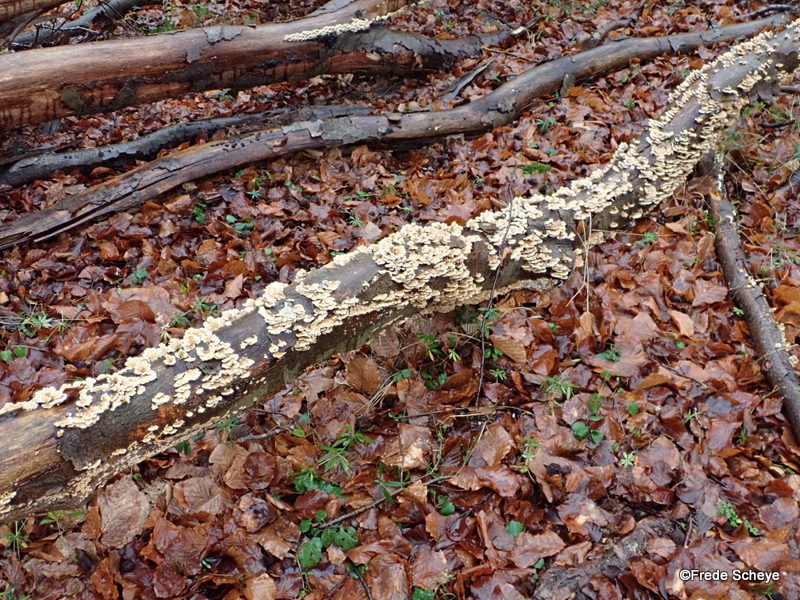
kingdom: Fungi
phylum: Basidiomycota
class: Agaricomycetes
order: Amylocorticiales
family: Amylocorticiaceae
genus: Plicaturopsis
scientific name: Plicaturopsis crispa
